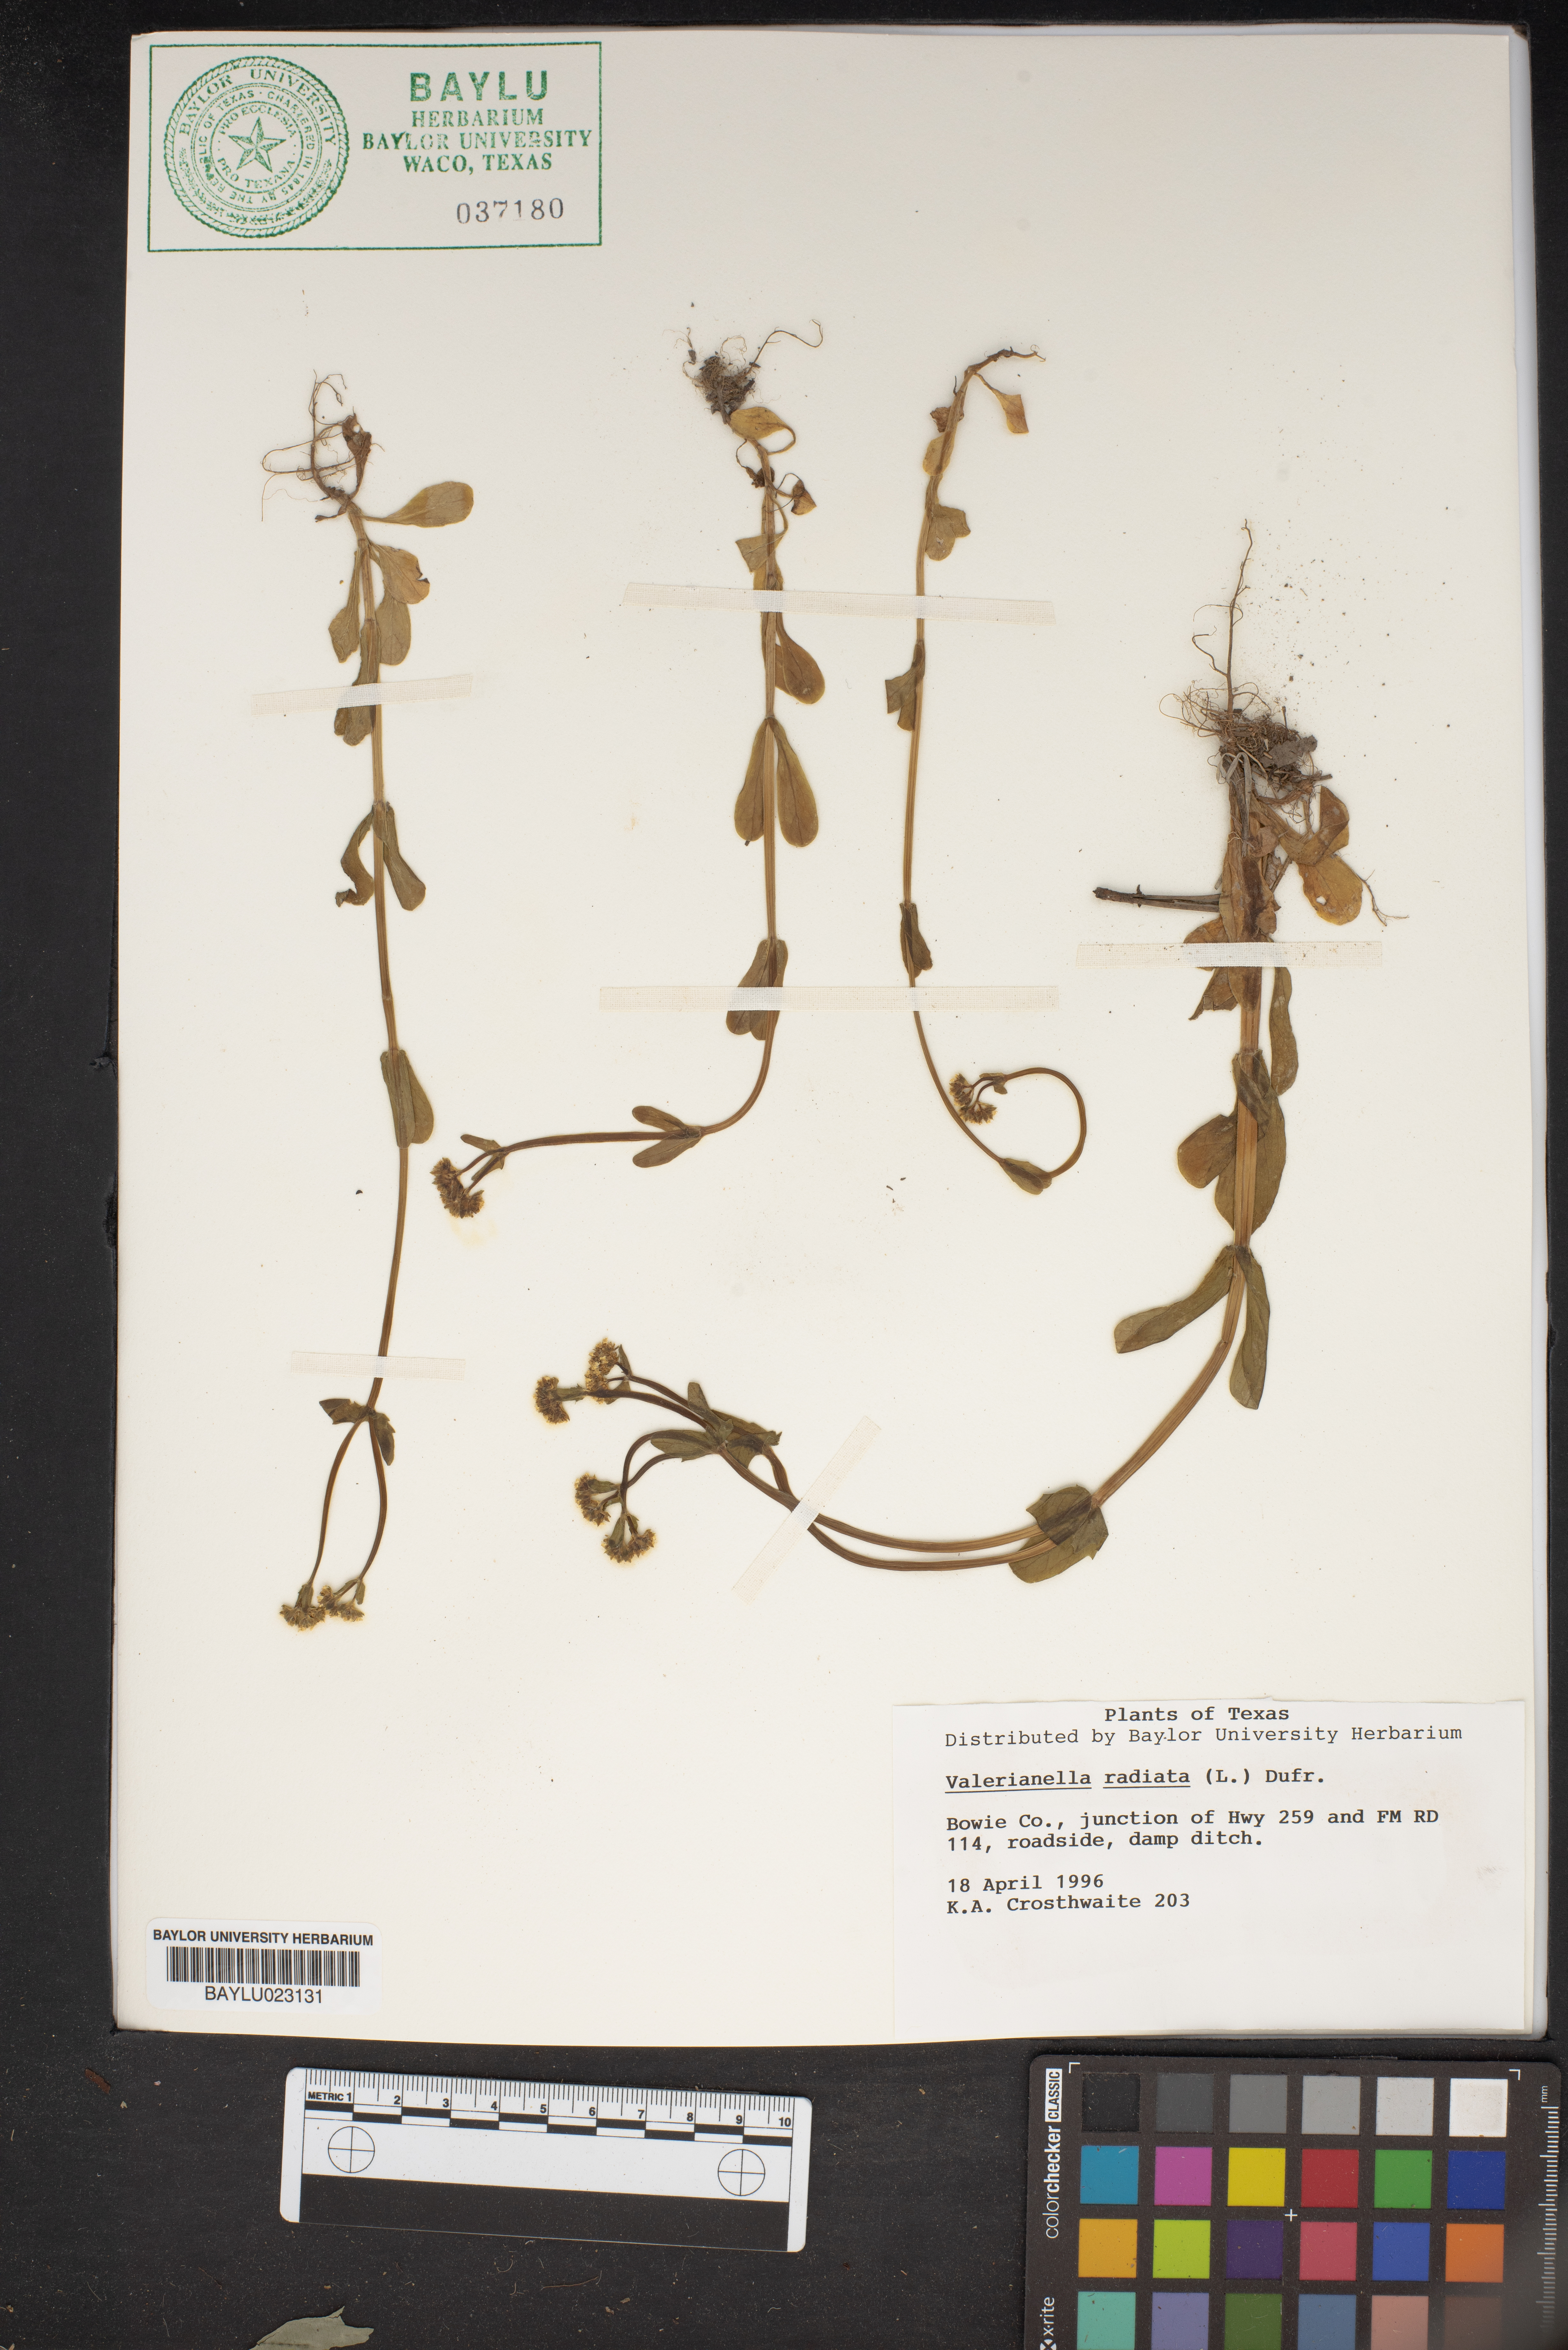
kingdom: Plantae
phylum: Tracheophyta
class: Magnoliopsida
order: Dipsacales
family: Caprifoliaceae
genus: Valerianella
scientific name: Valerianella radiata
